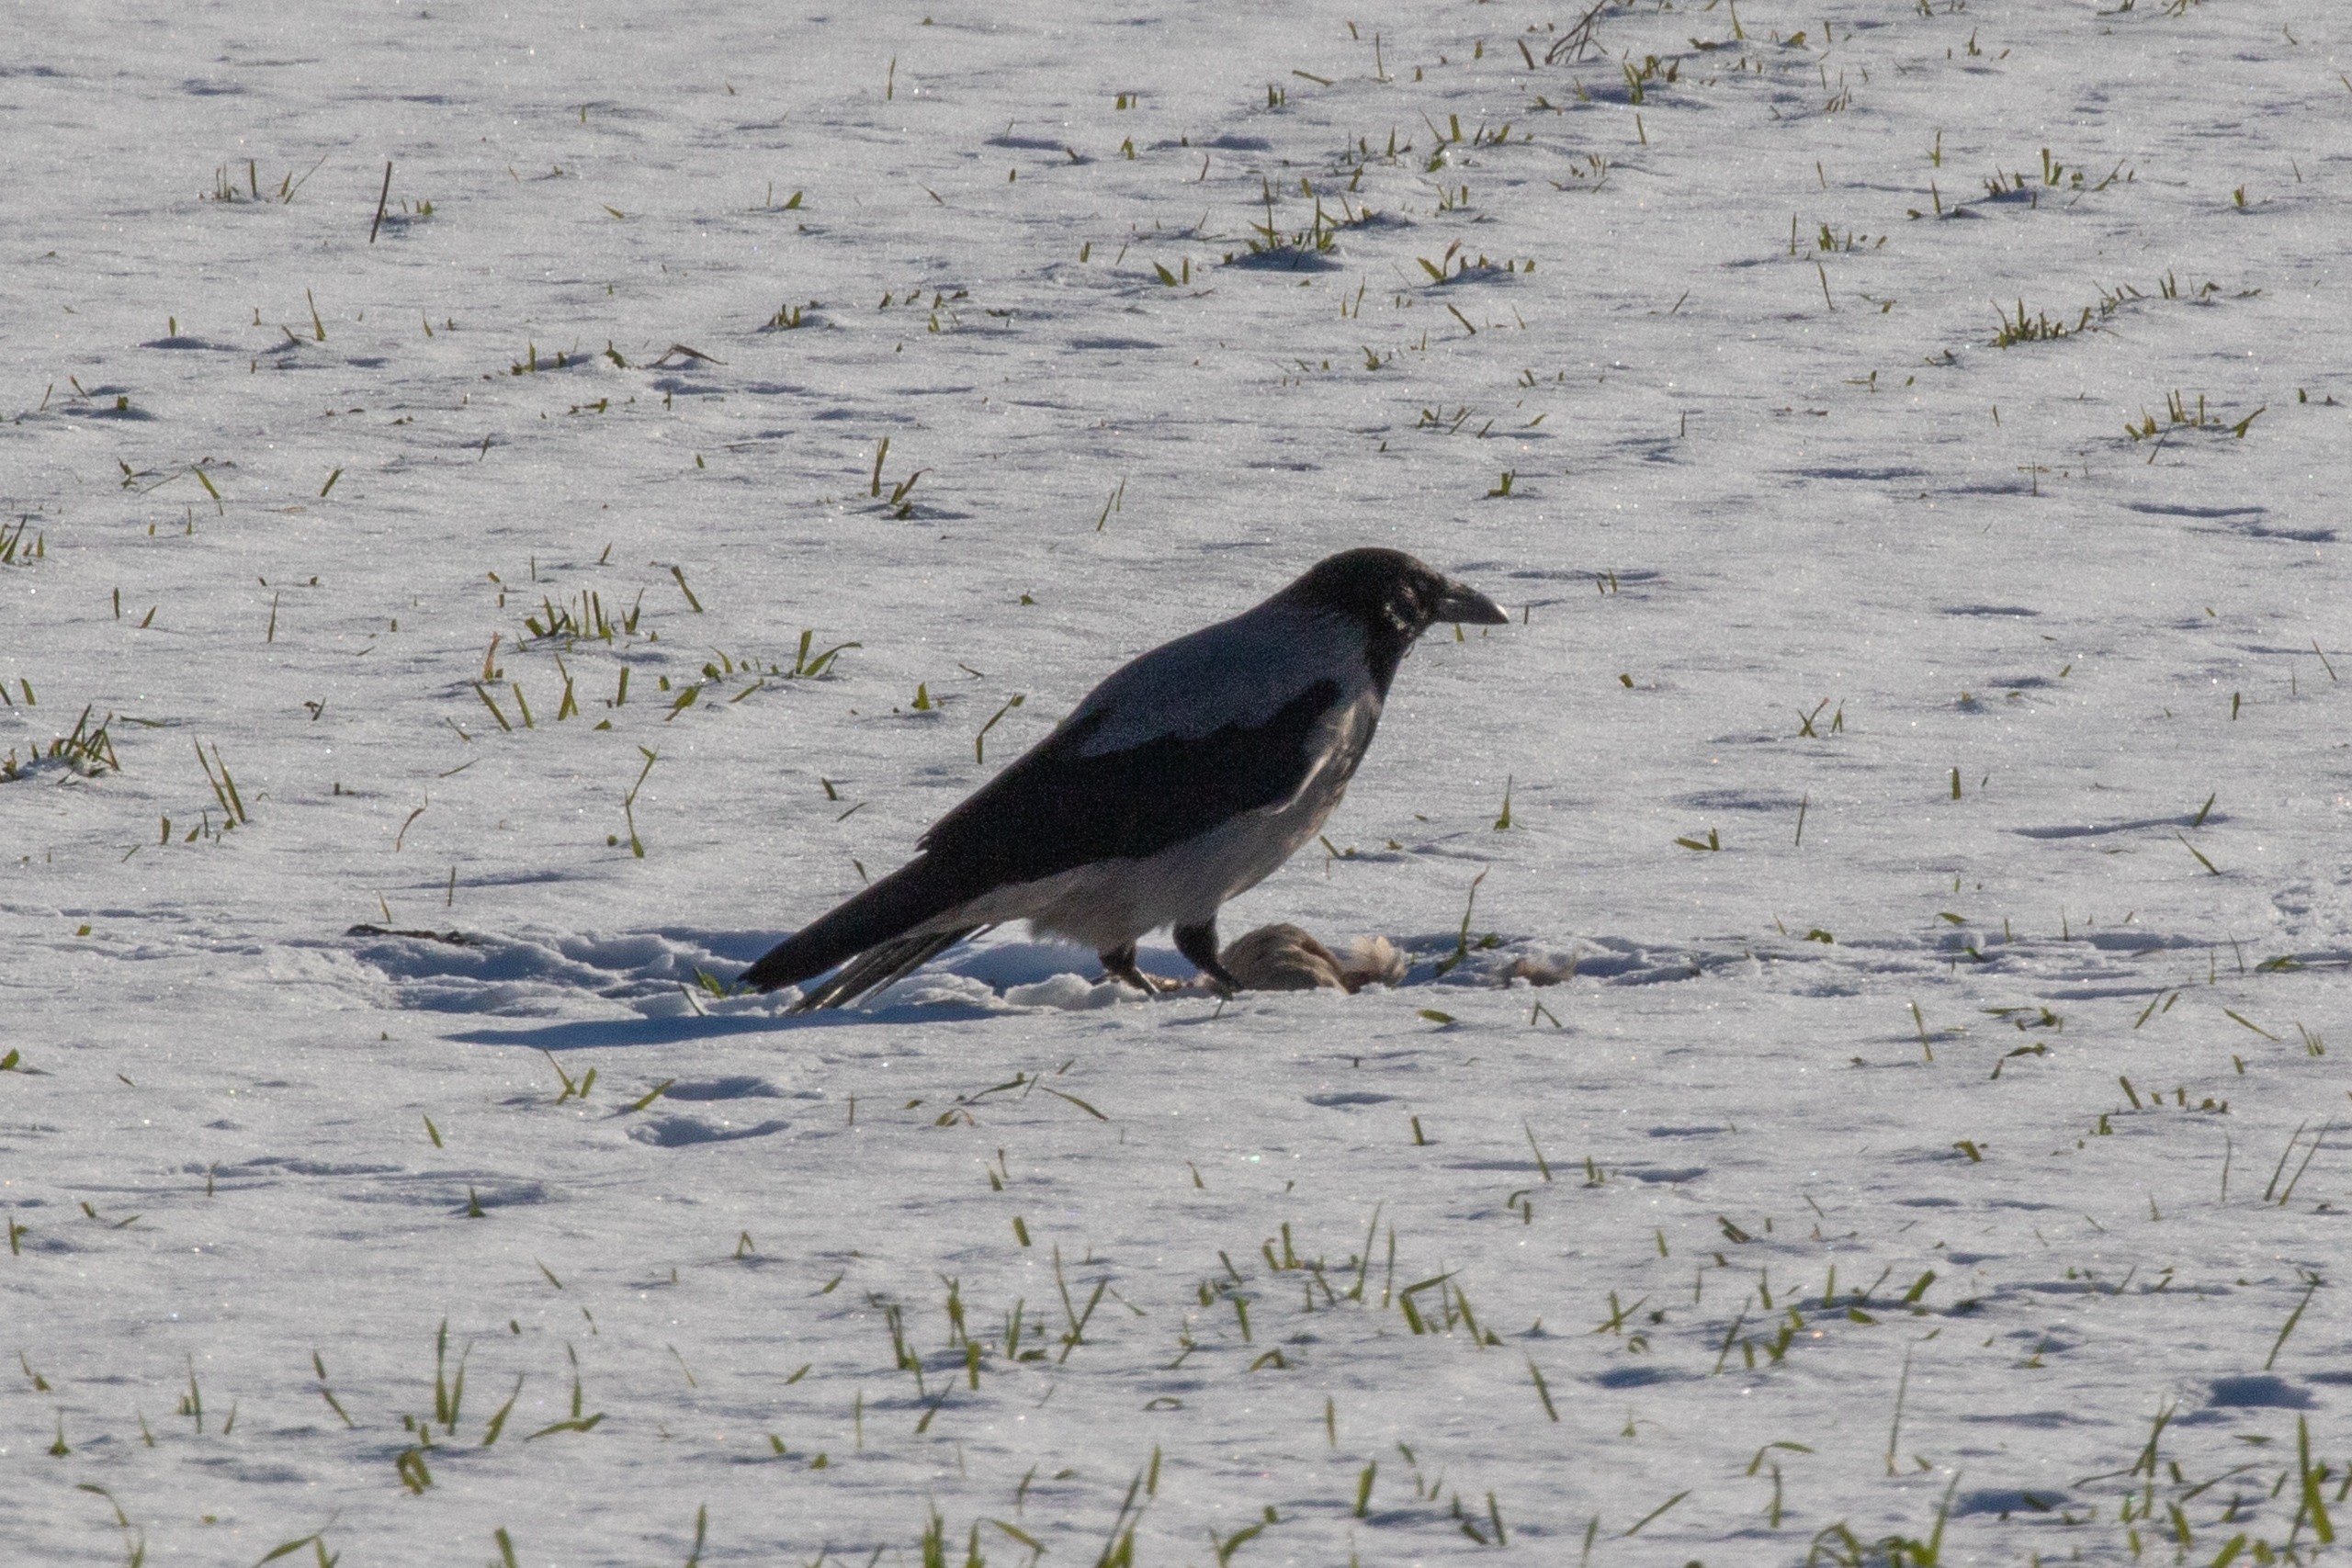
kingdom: Animalia
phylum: Chordata
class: Aves
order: Passeriformes
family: Corvidae
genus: Corvus
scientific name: Corvus cornix
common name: Gråkrage
